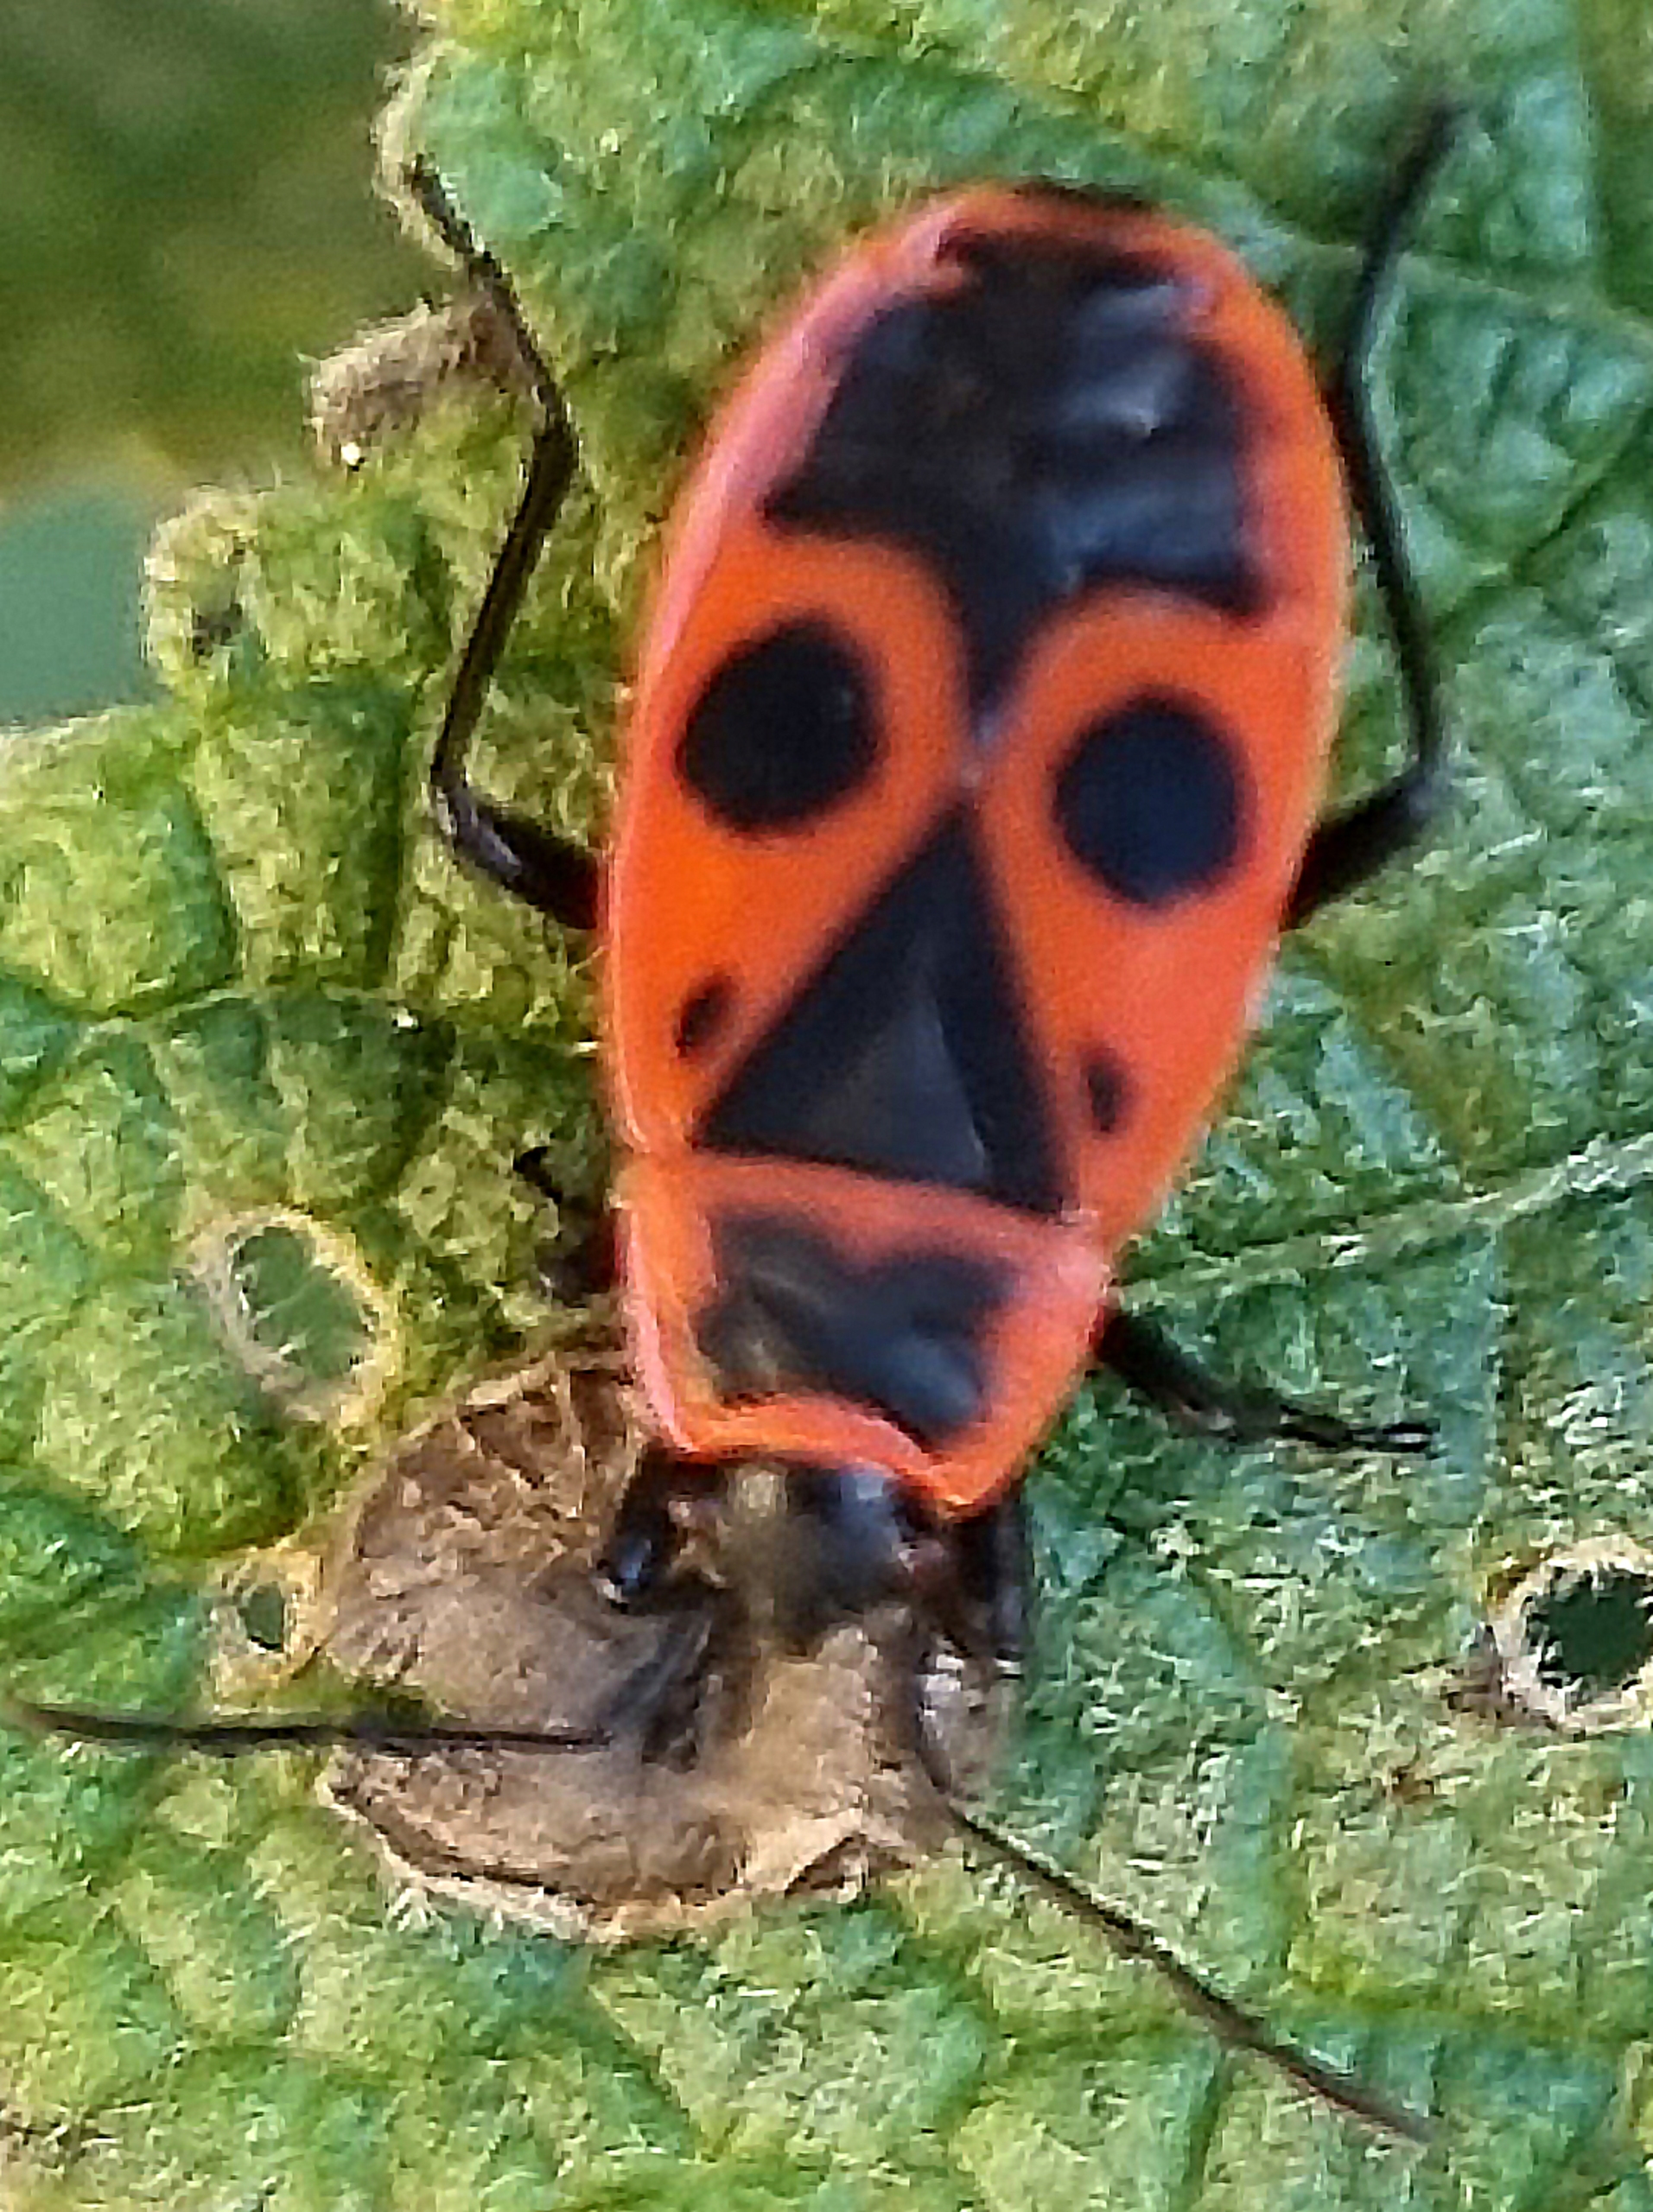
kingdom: Animalia
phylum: Arthropoda
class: Insecta
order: Hemiptera
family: Pyrrhocoridae
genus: Pyrrhocoris
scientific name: Pyrrhocoris apterus
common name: Ildtæge
